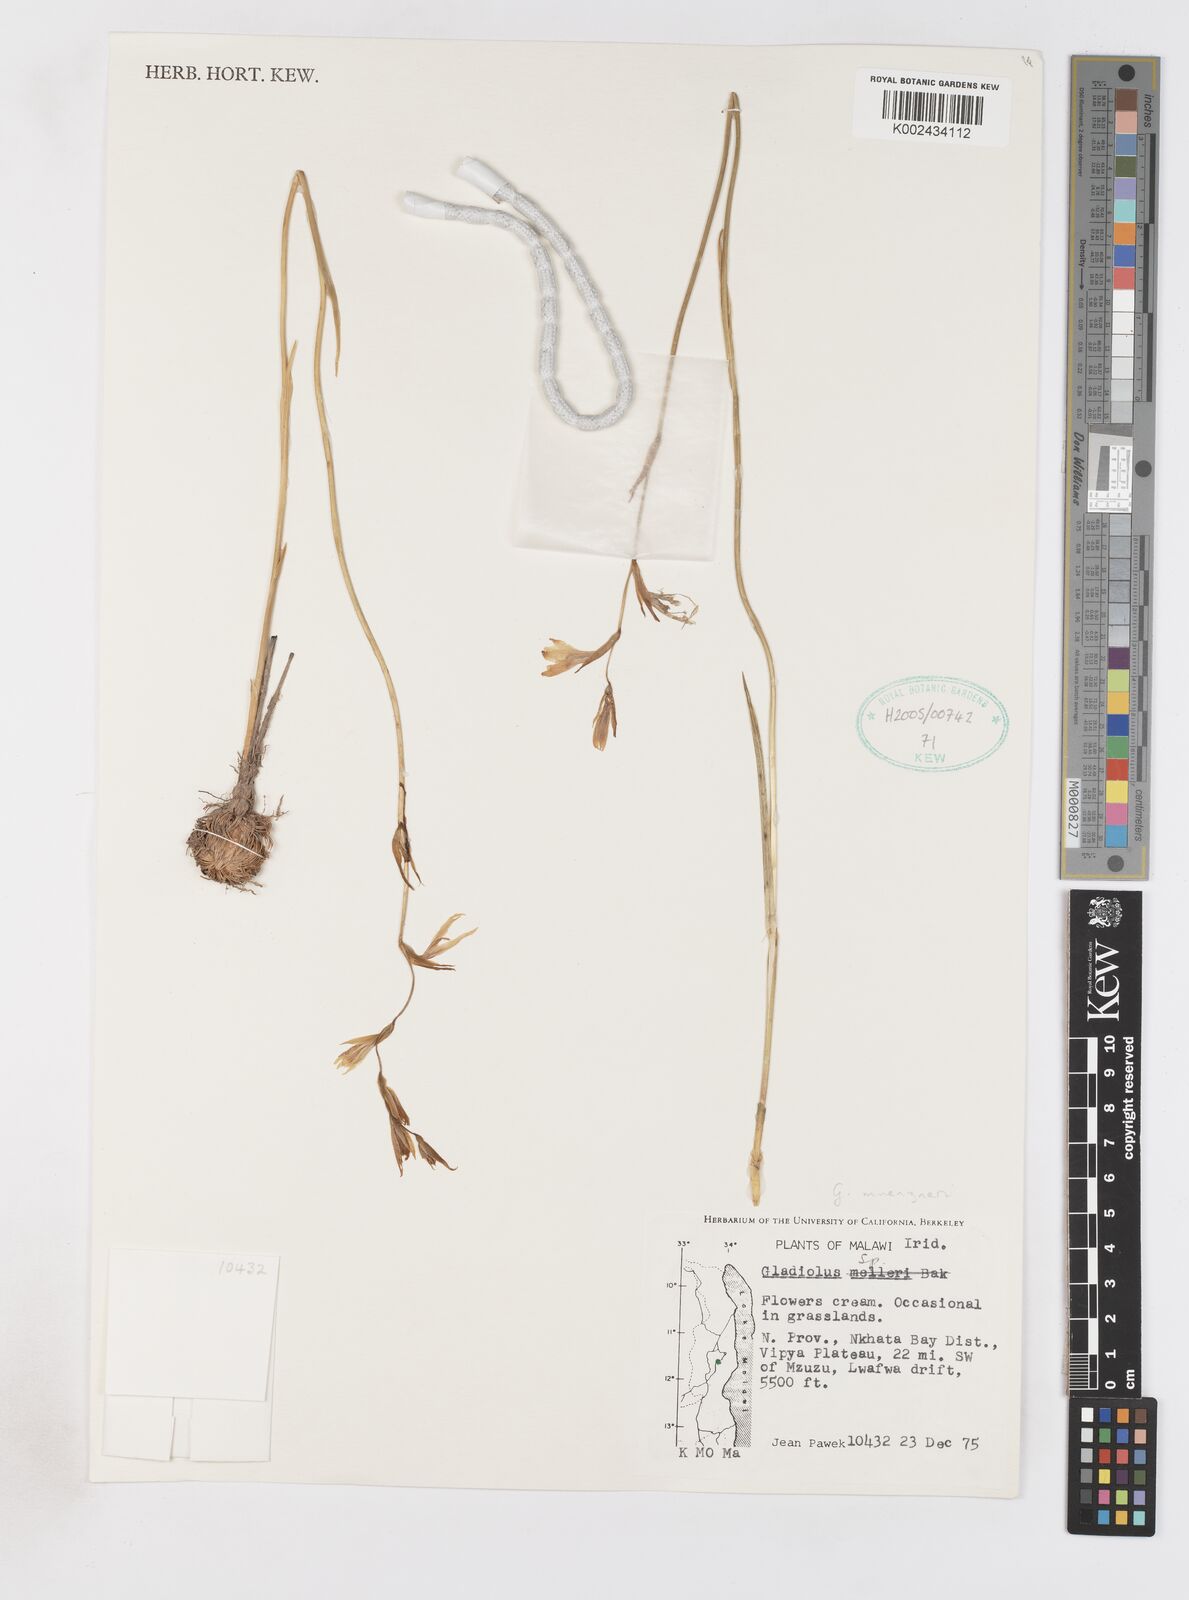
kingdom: Plantae
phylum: Tracheophyta
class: Liliopsida
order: Asparagales
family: Iridaceae
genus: Gladiolus
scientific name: Gladiolus muenzneri
